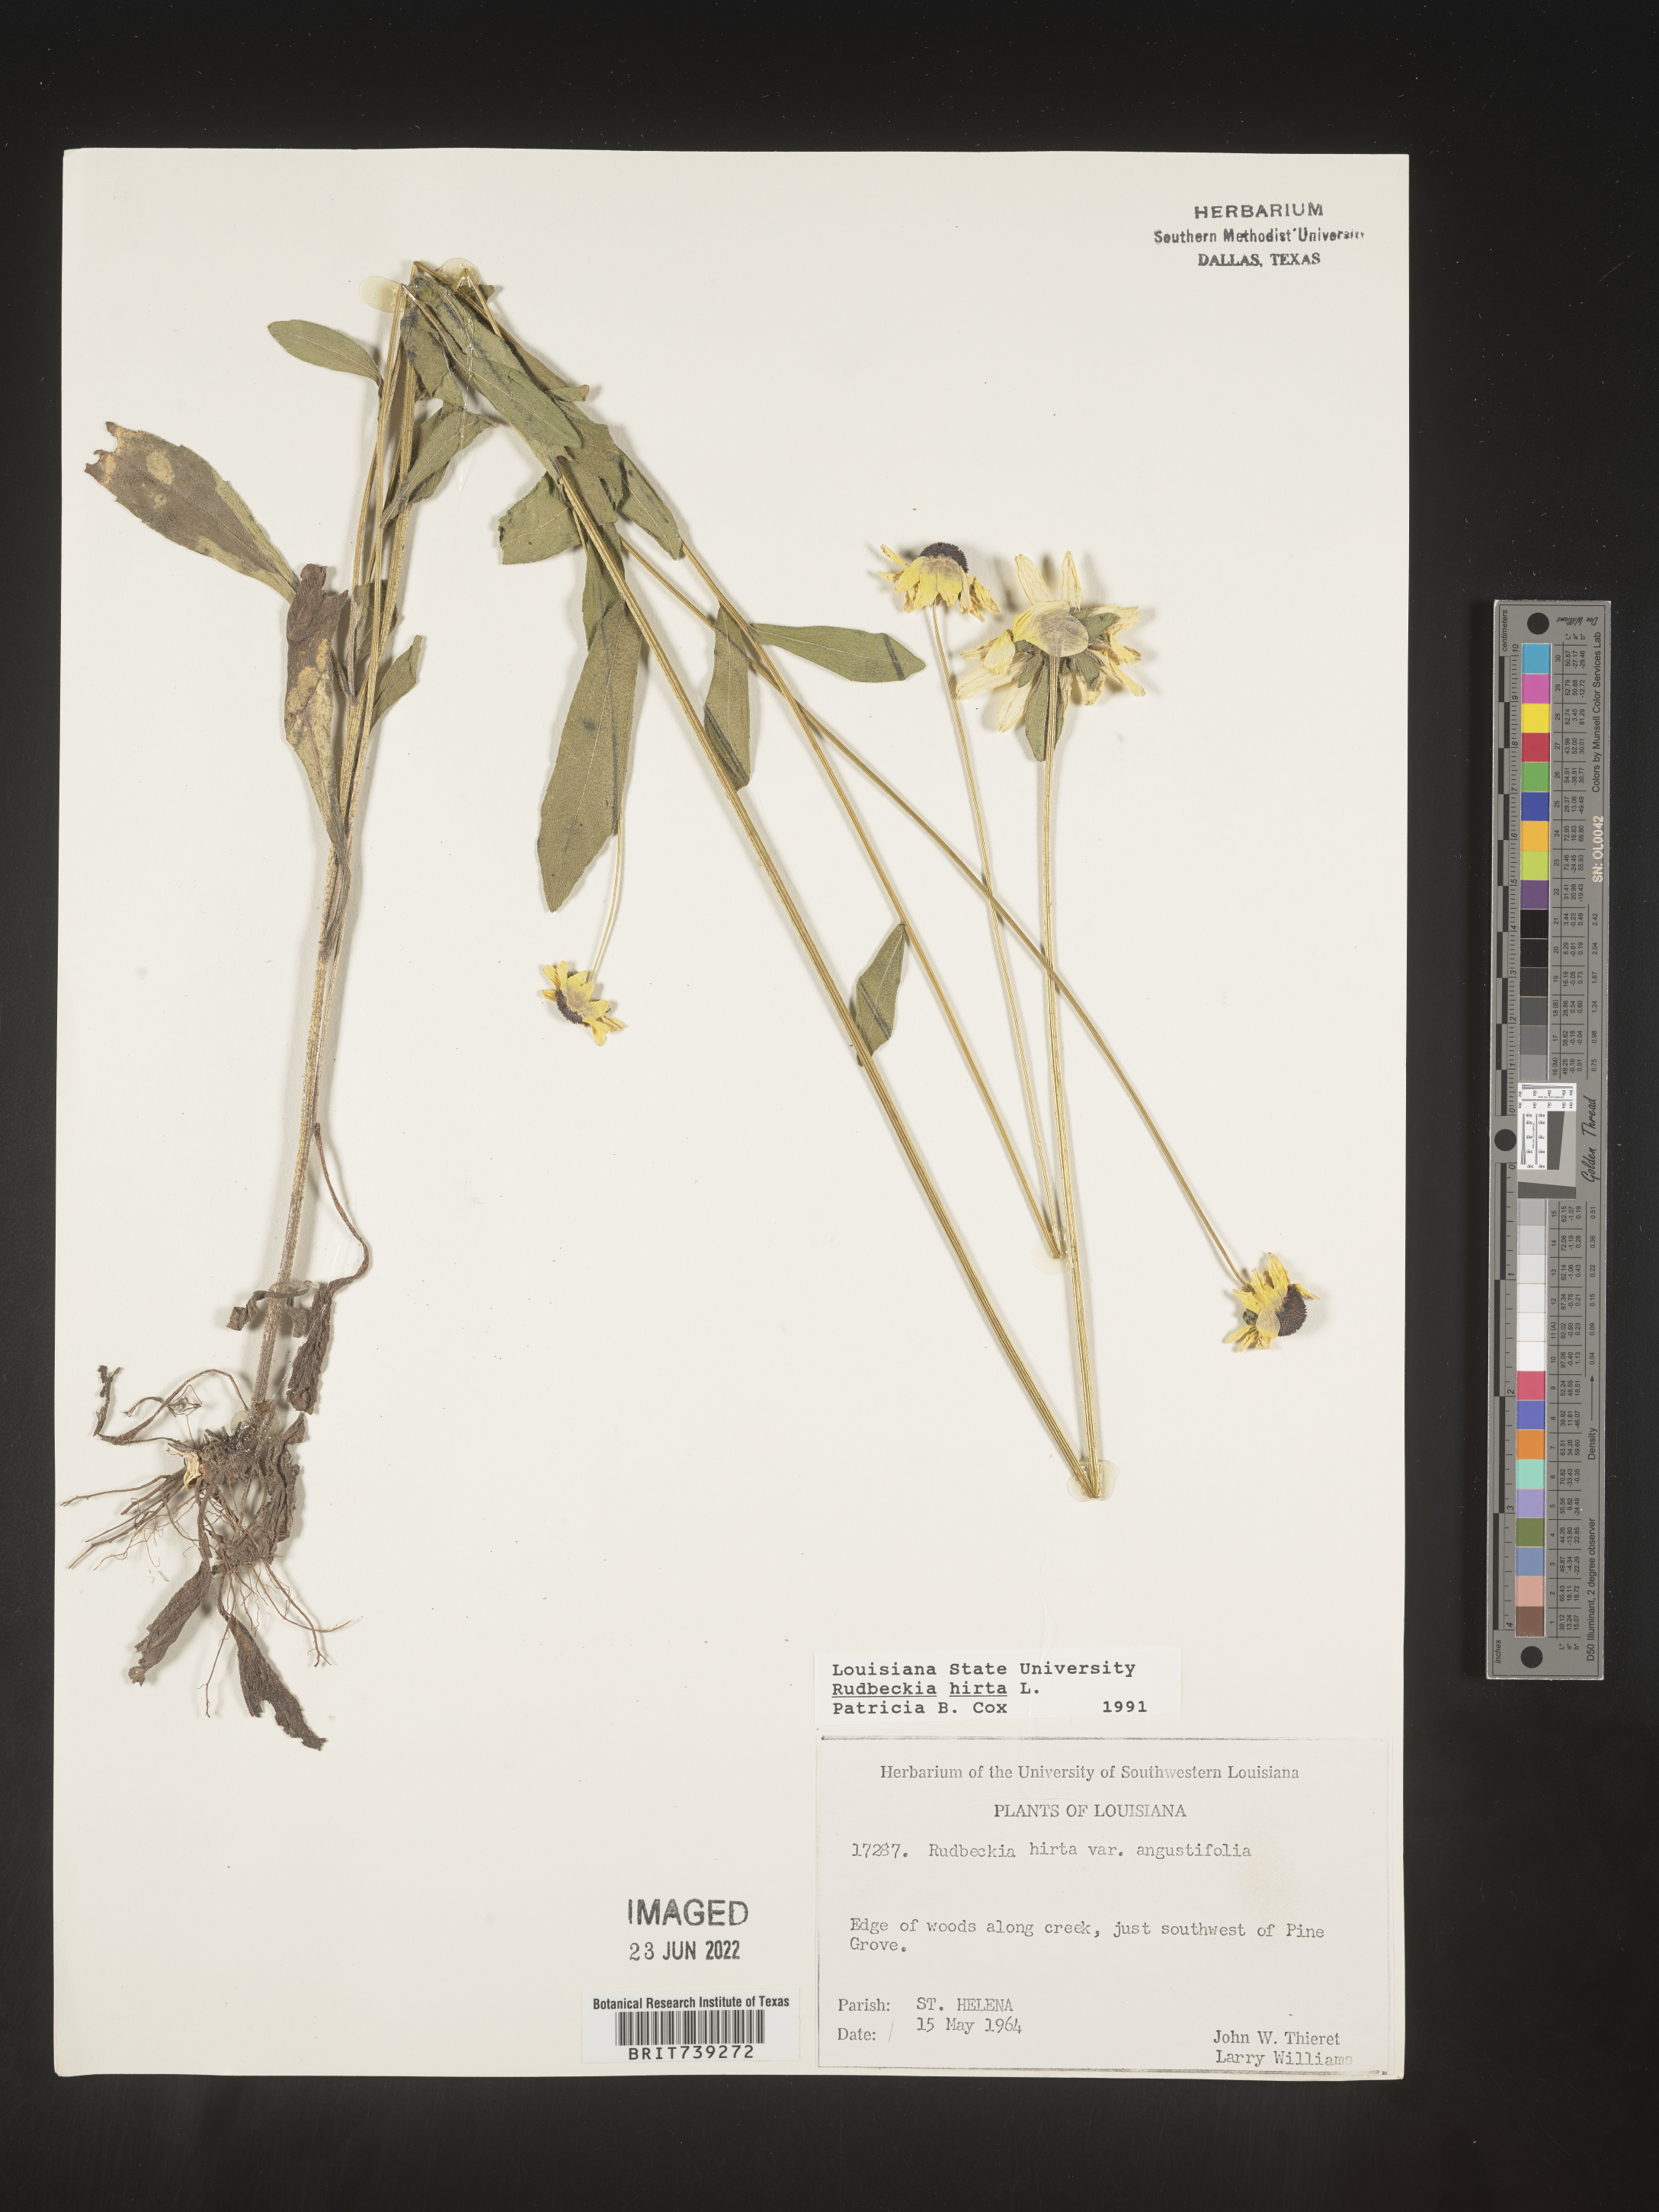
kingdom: Plantae
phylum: Tracheophyta
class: Magnoliopsida
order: Asterales
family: Asteraceae
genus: Rudbeckia
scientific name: Rudbeckia hirta
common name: Black-eyed-susan
